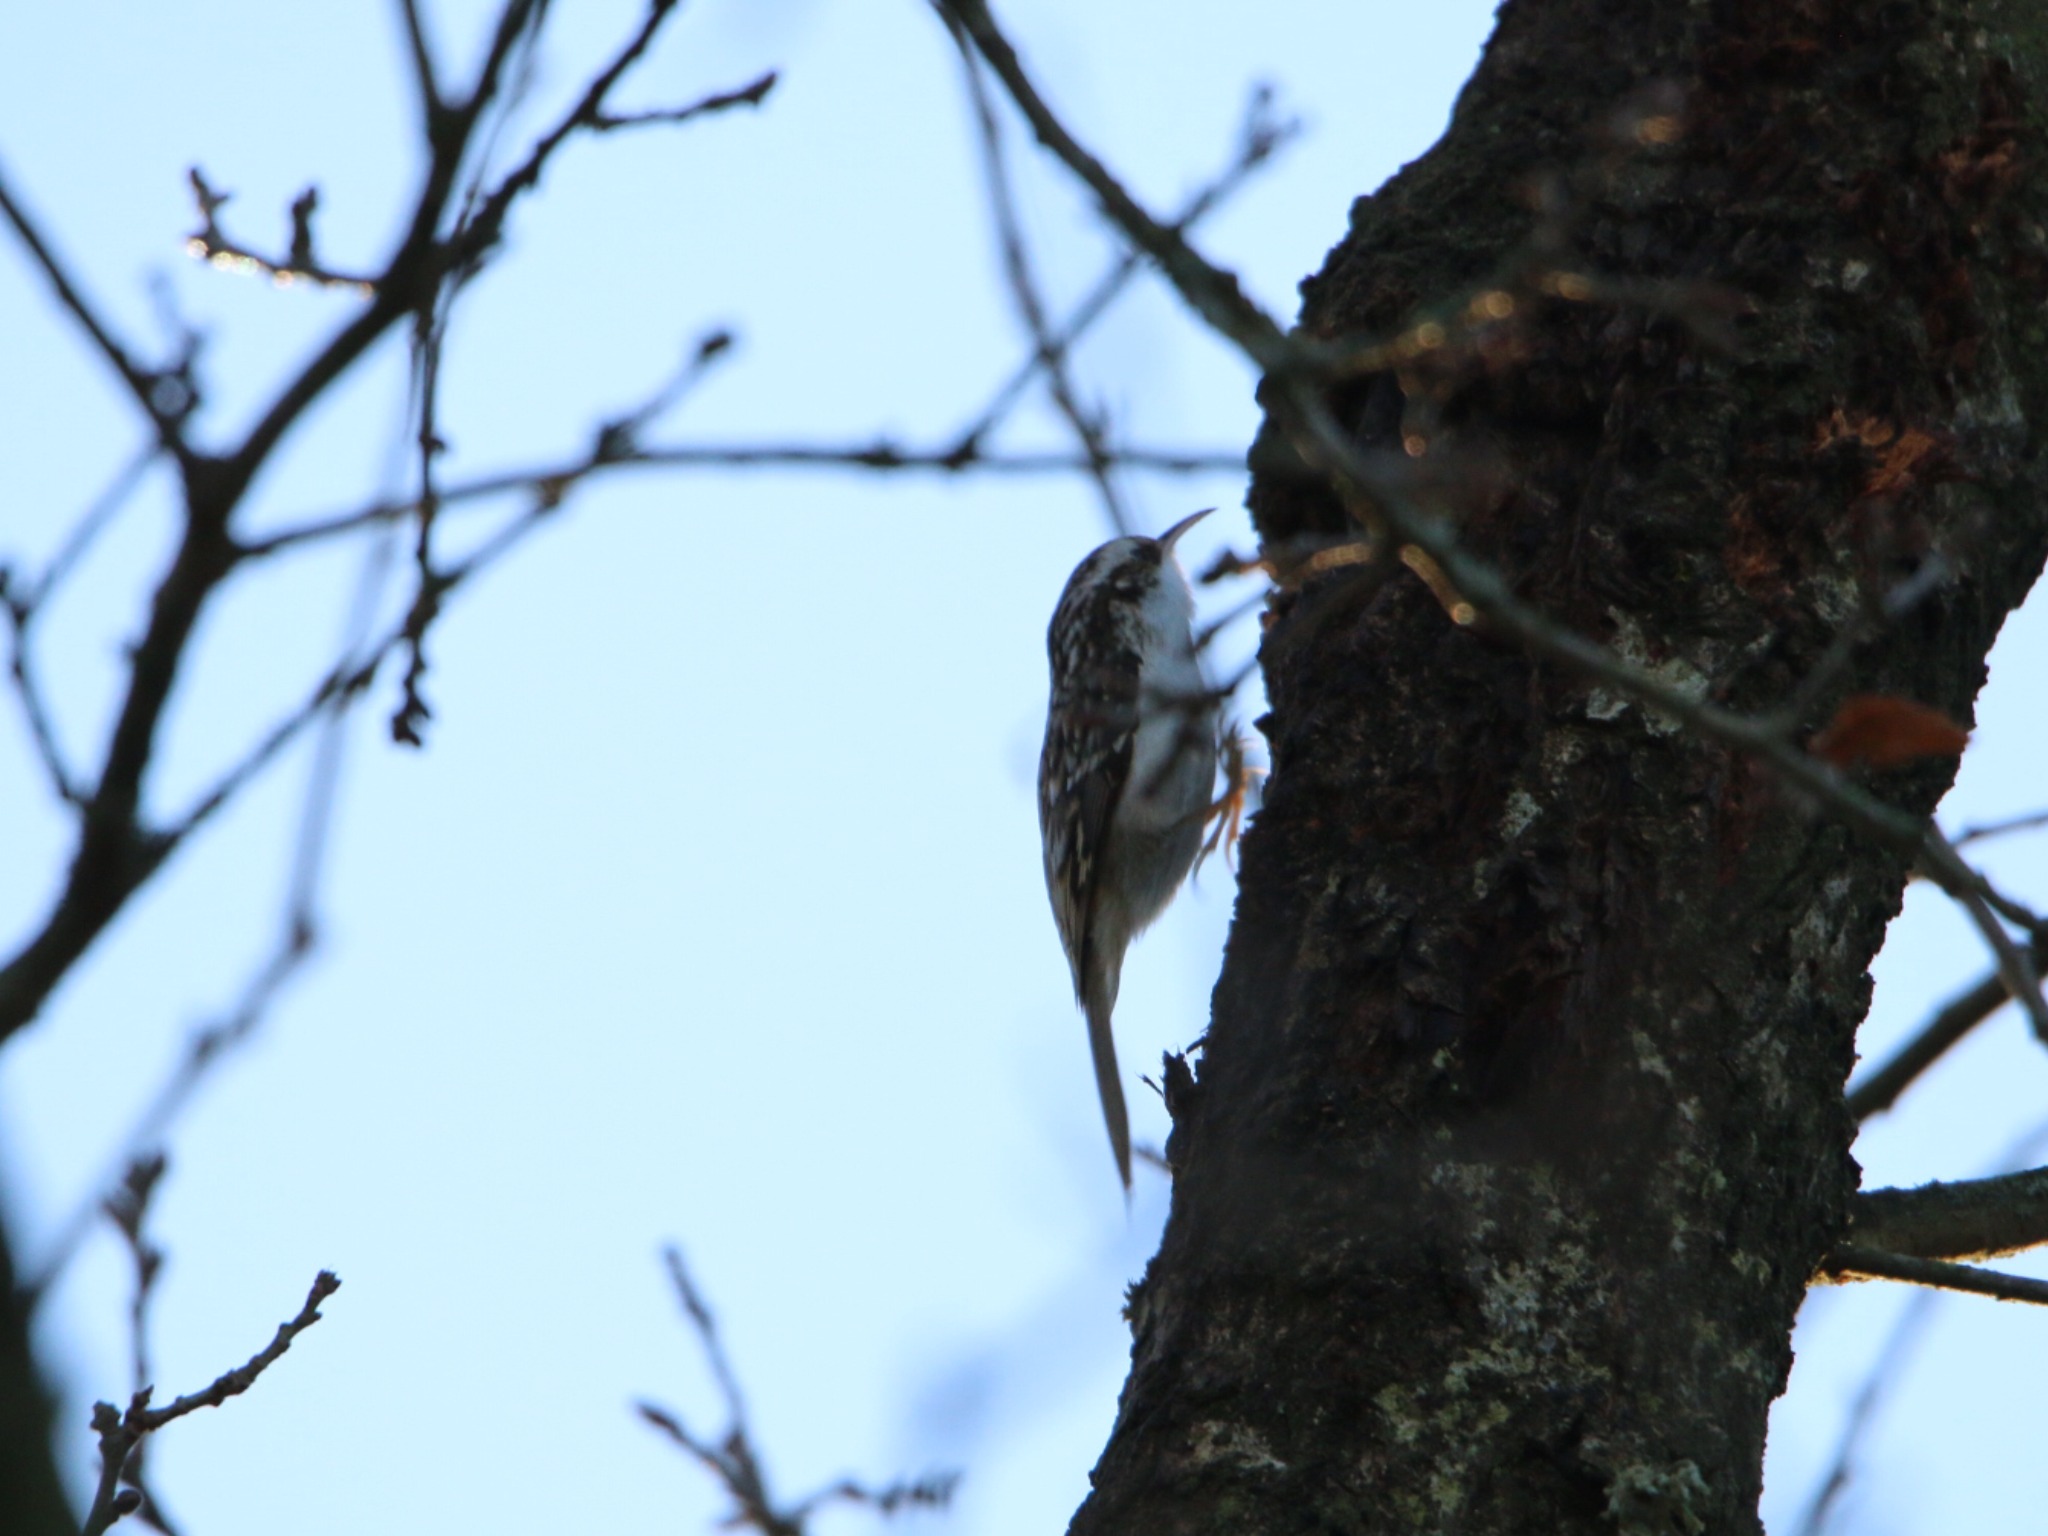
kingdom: Animalia
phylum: Chordata
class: Aves
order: Passeriformes
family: Certhiidae
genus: Certhia
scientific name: Certhia familiaris
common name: Træløber
